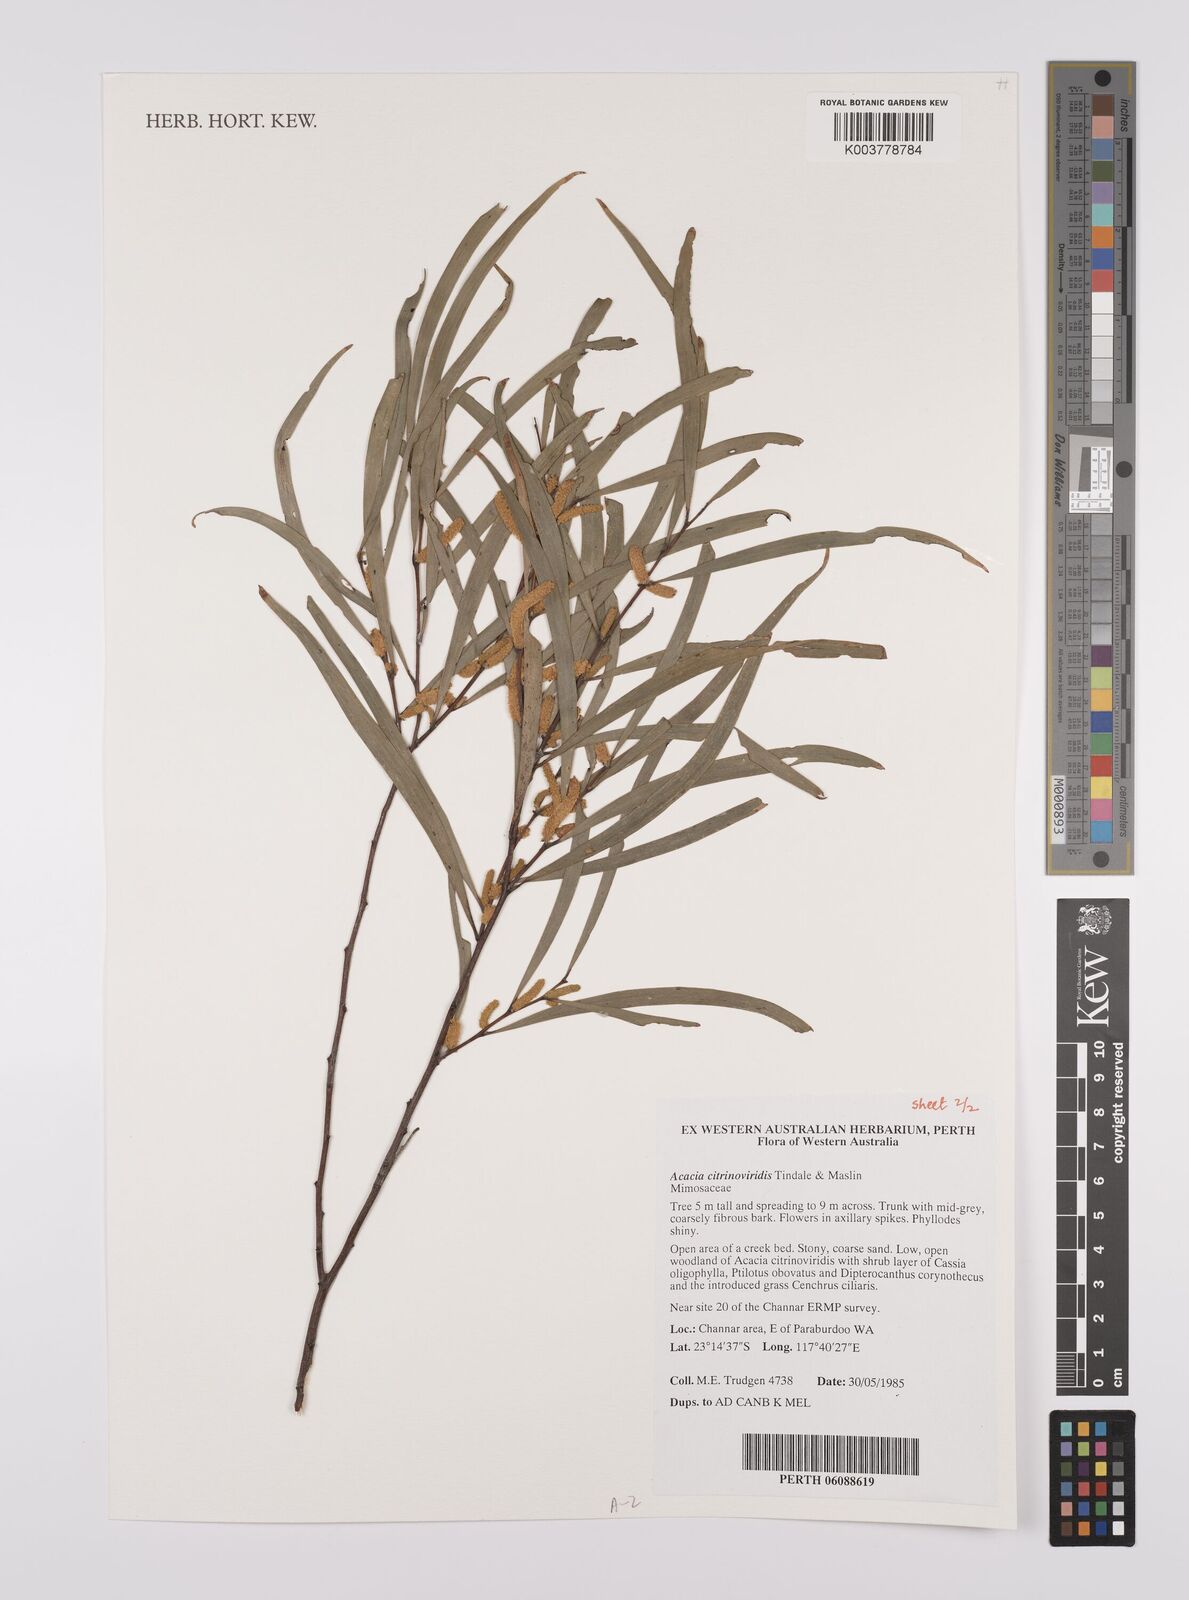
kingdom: Plantae
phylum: Tracheophyta
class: Magnoliopsida
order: Fabales
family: Fabaceae
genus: Acacia
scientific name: Acacia citrinoviridis
